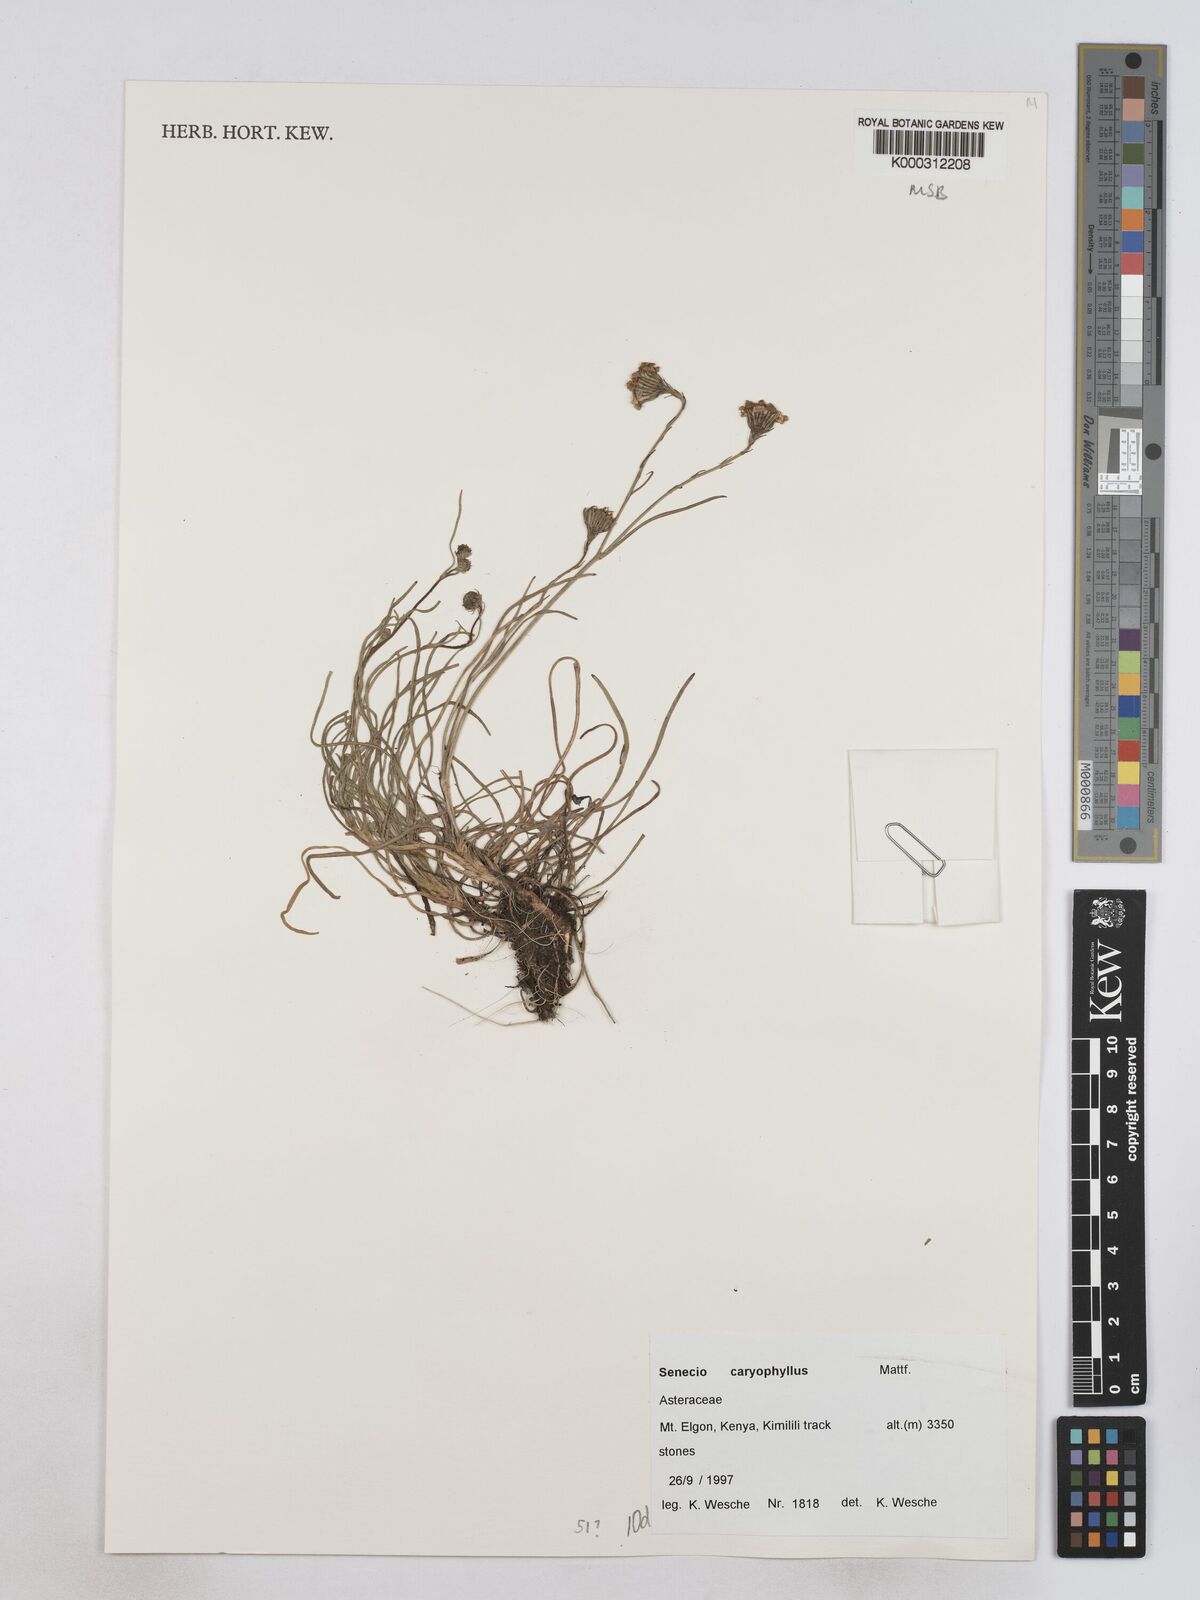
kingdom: Plantae
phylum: Tracheophyta
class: Magnoliopsida
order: Asterales
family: Asteraceae
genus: Senecio
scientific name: Senecio jacksonii
